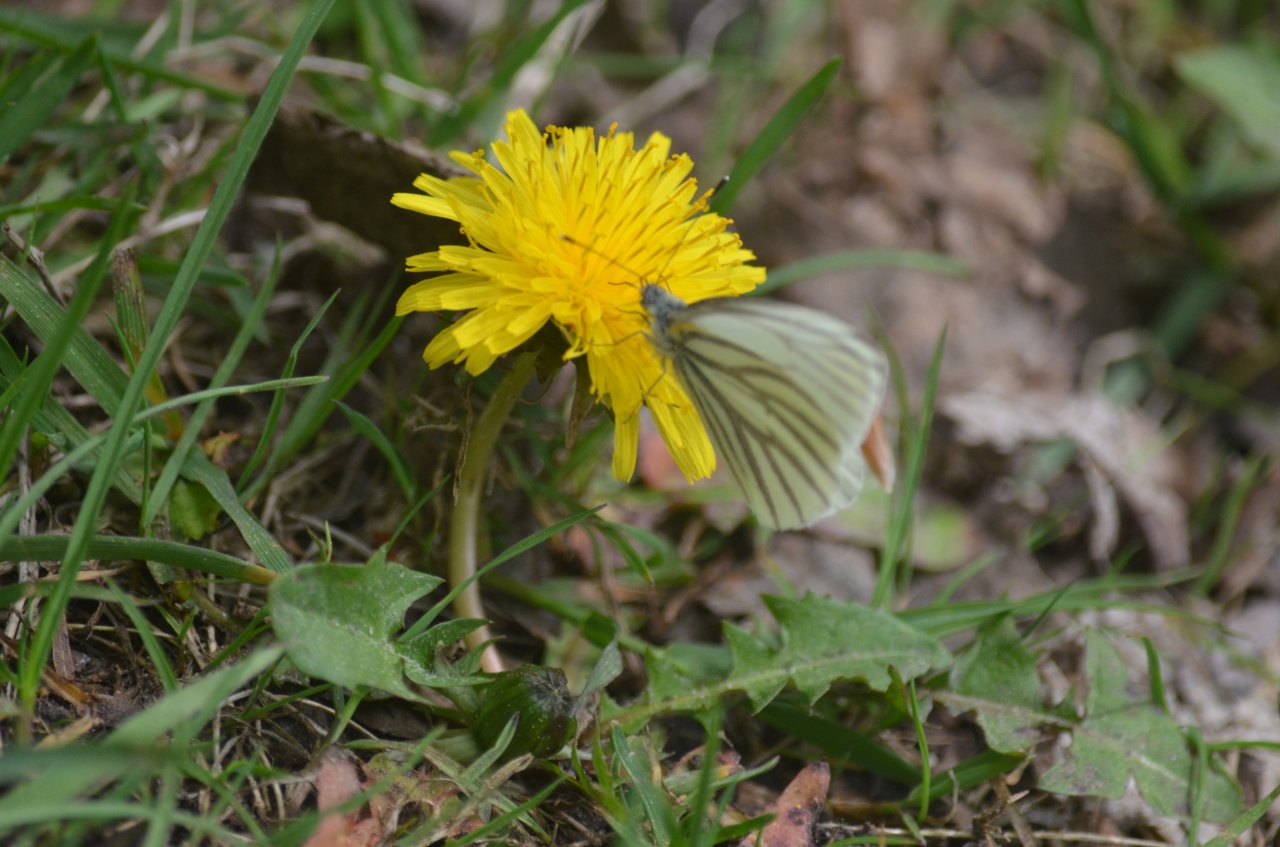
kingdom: Animalia
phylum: Arthropoda
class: Insecta
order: Lepidoptera
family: Pieridae
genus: Pieris
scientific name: Pieris oleracea
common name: Mustard White
